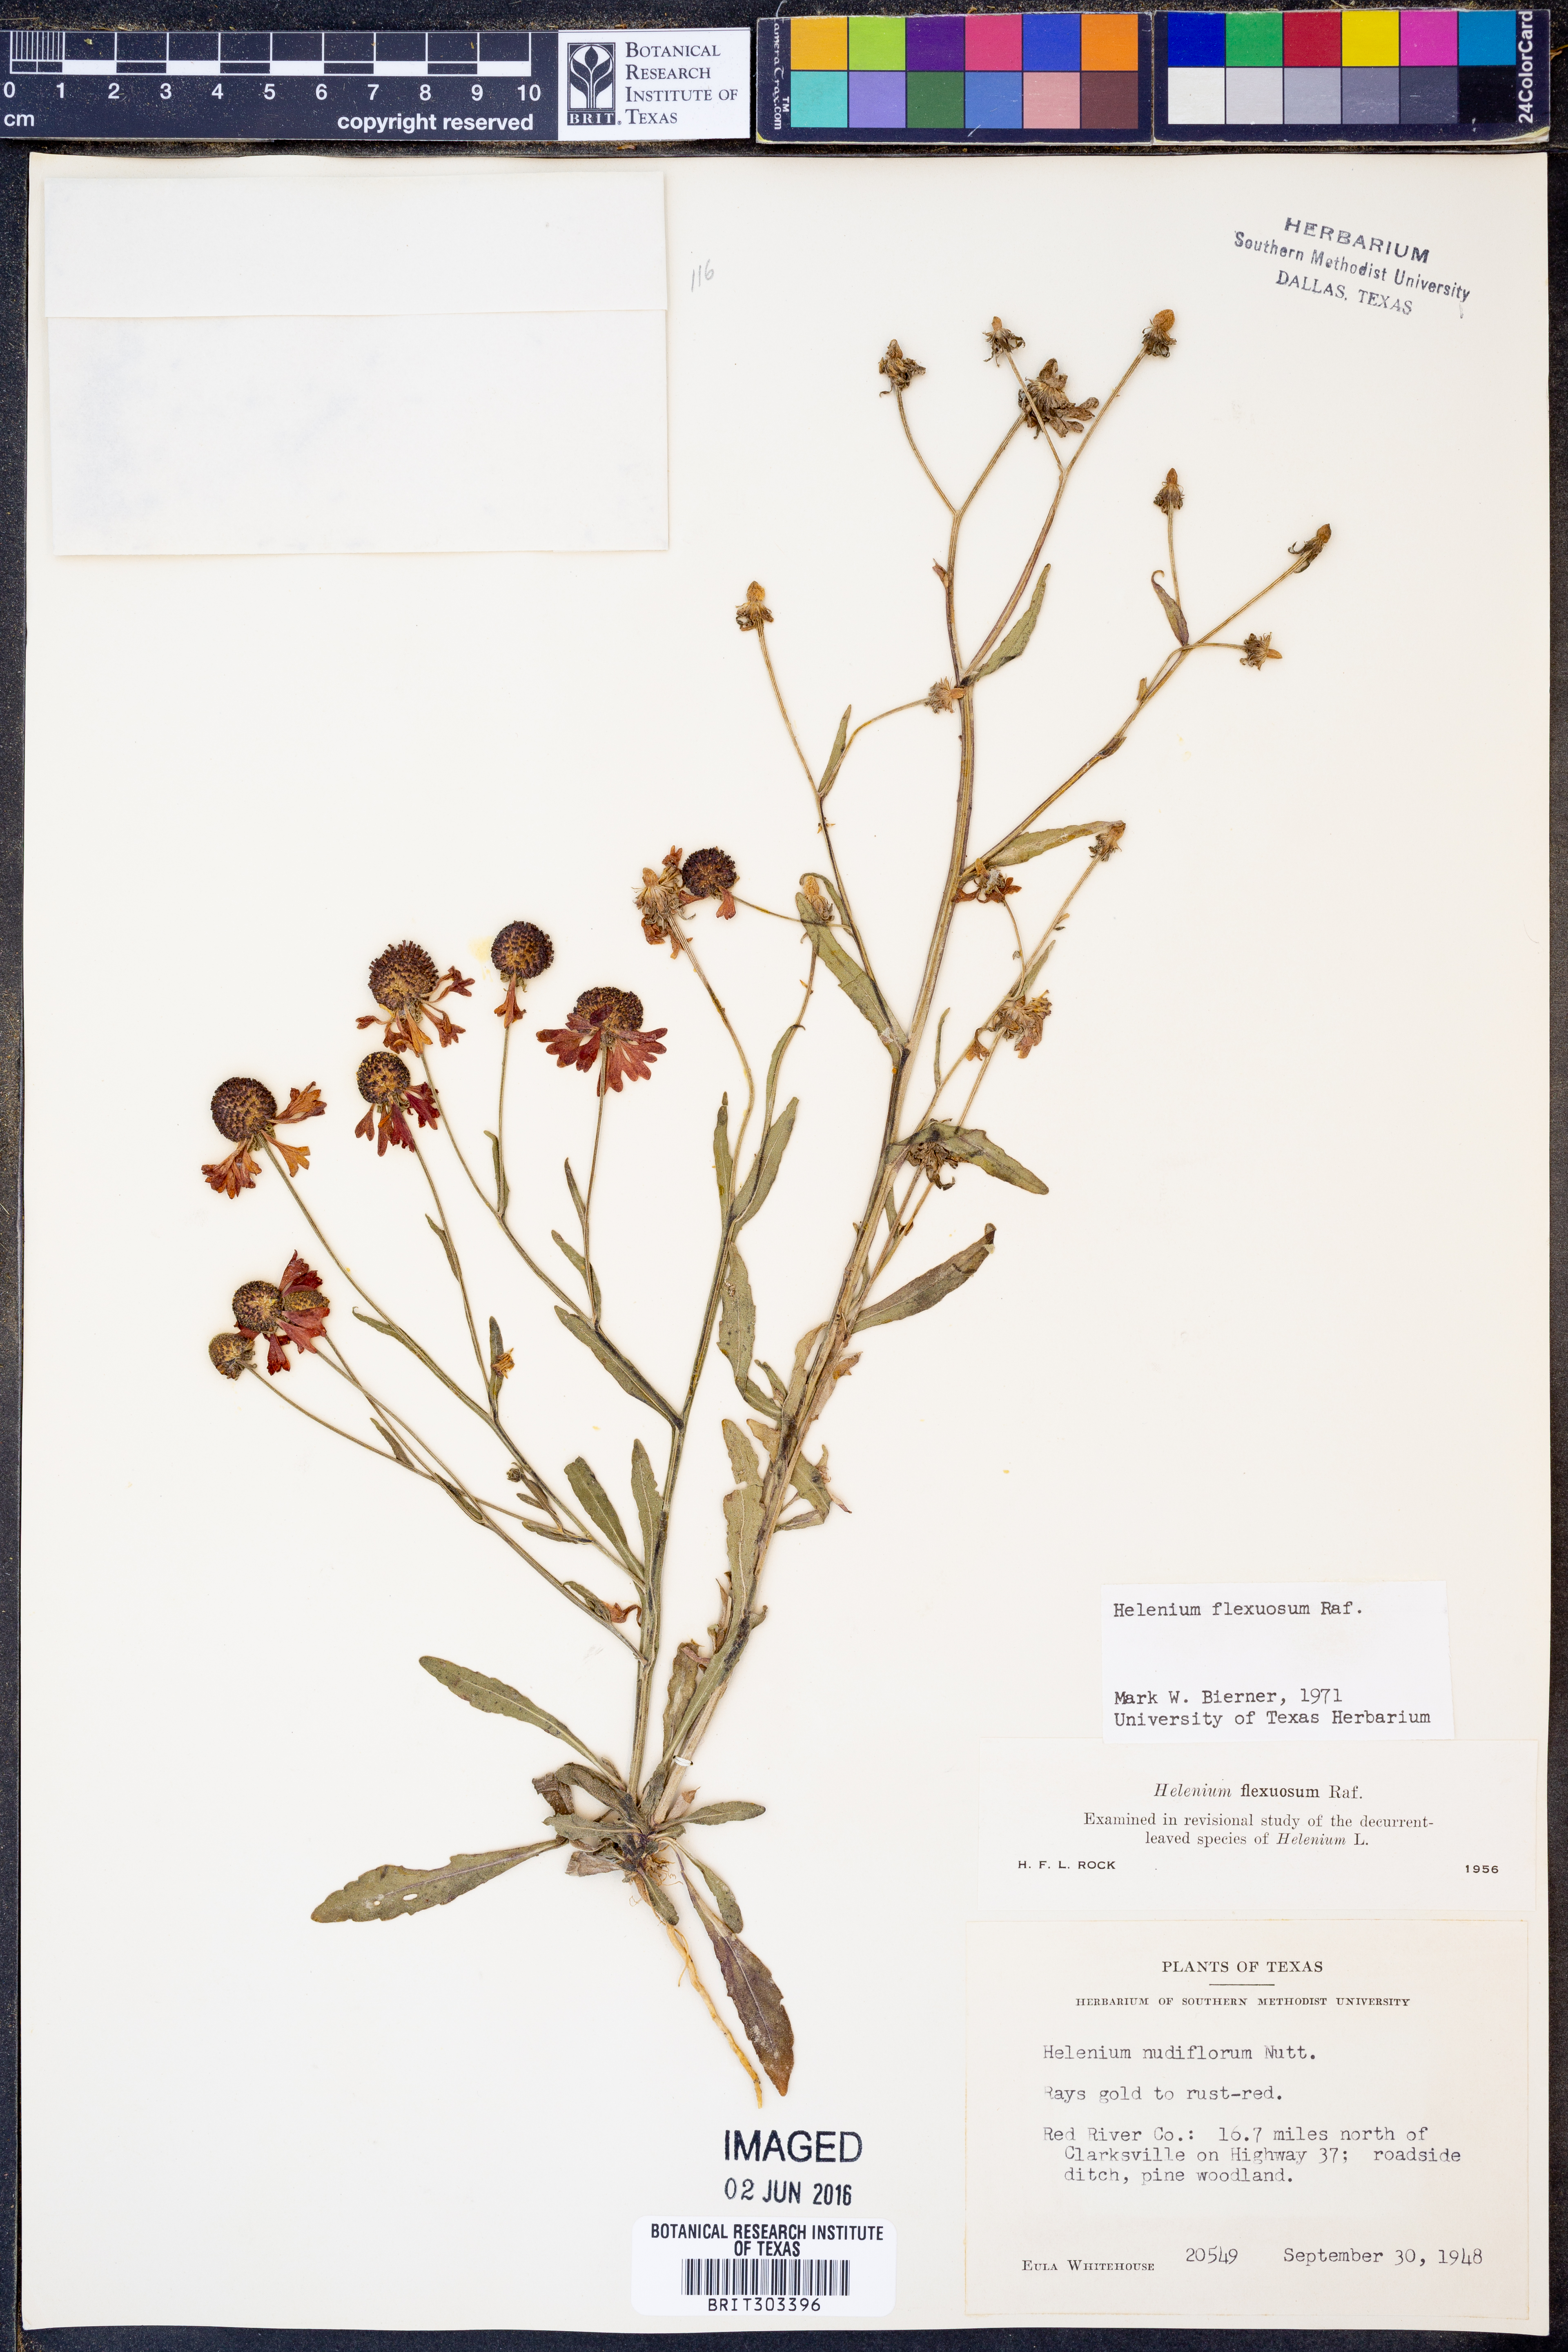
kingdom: Plantae
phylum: Tracheophyta
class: Magnoliopsida
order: Asterales
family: Asteraceae
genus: Helenium
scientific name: Helenium flexuosum
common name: Naked-flowered sneezeweed
